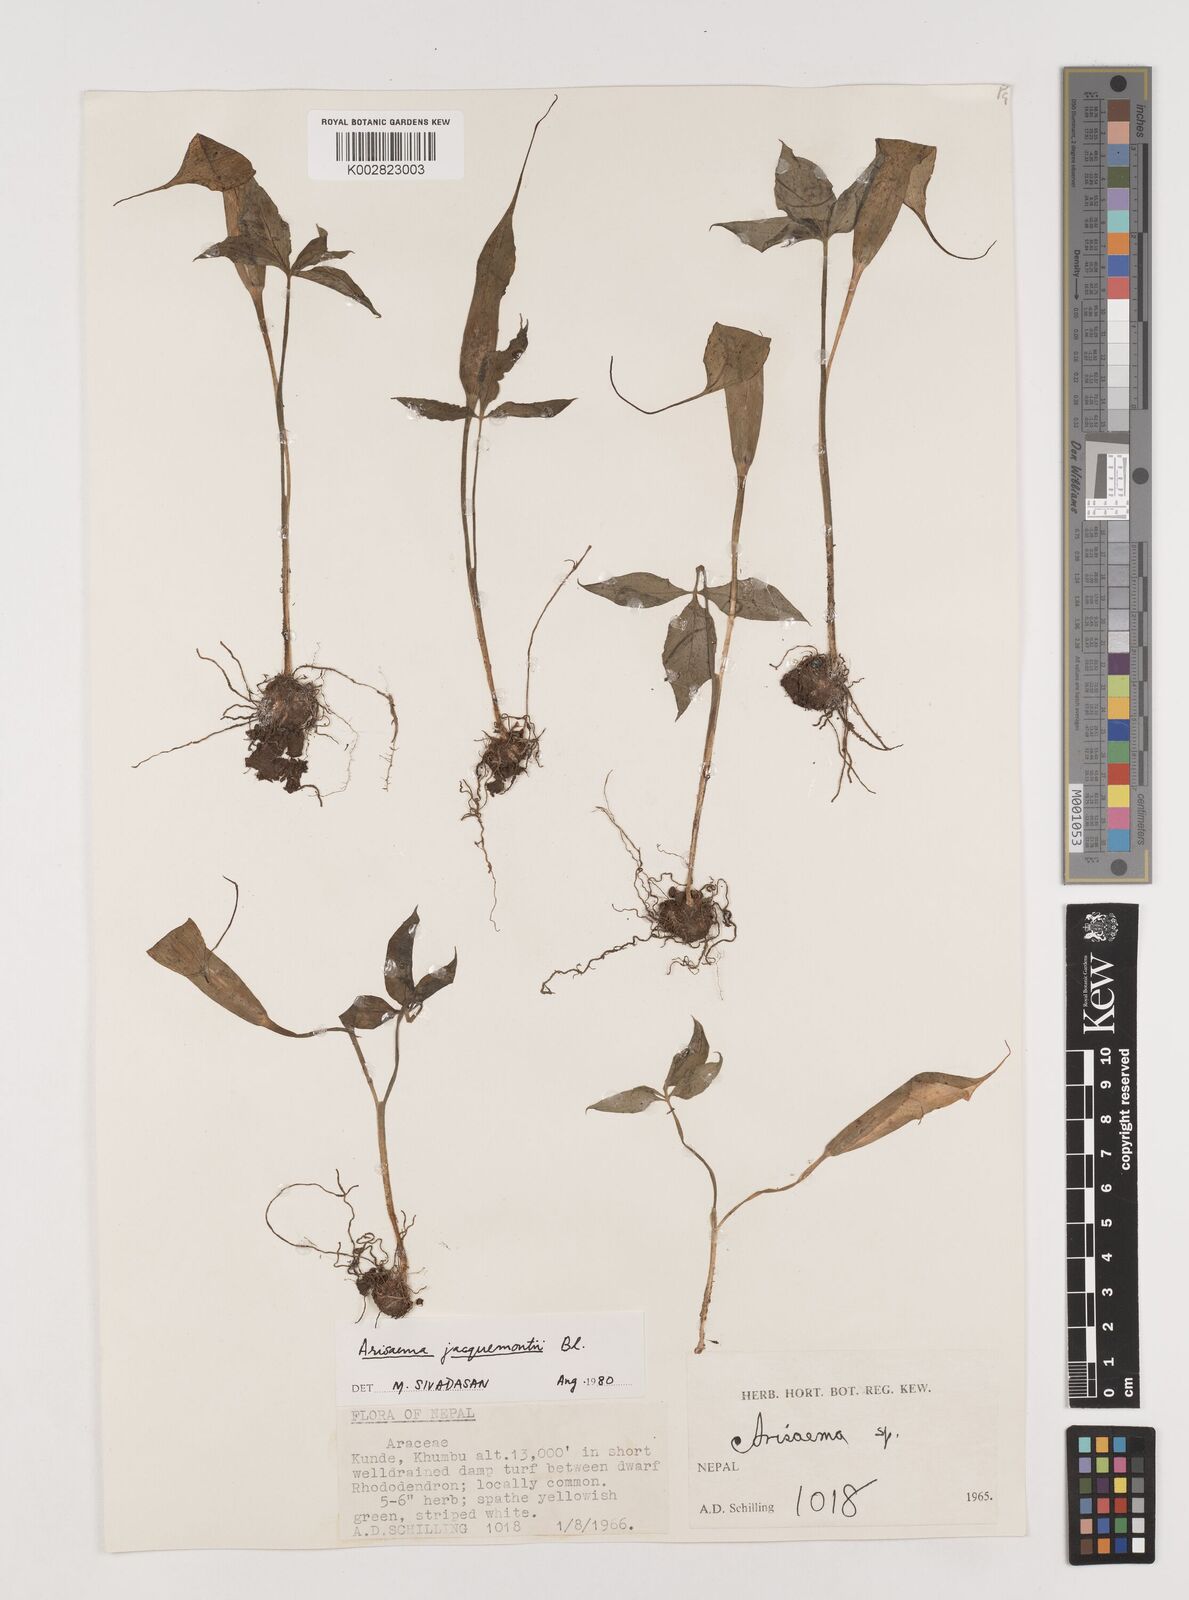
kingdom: Plantae
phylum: Tracheophyta
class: Liliopsida
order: Alismatales
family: Araceae
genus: Arisaema
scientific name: Arisaema jacquemontii
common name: Jacquemont's cobra-lily
